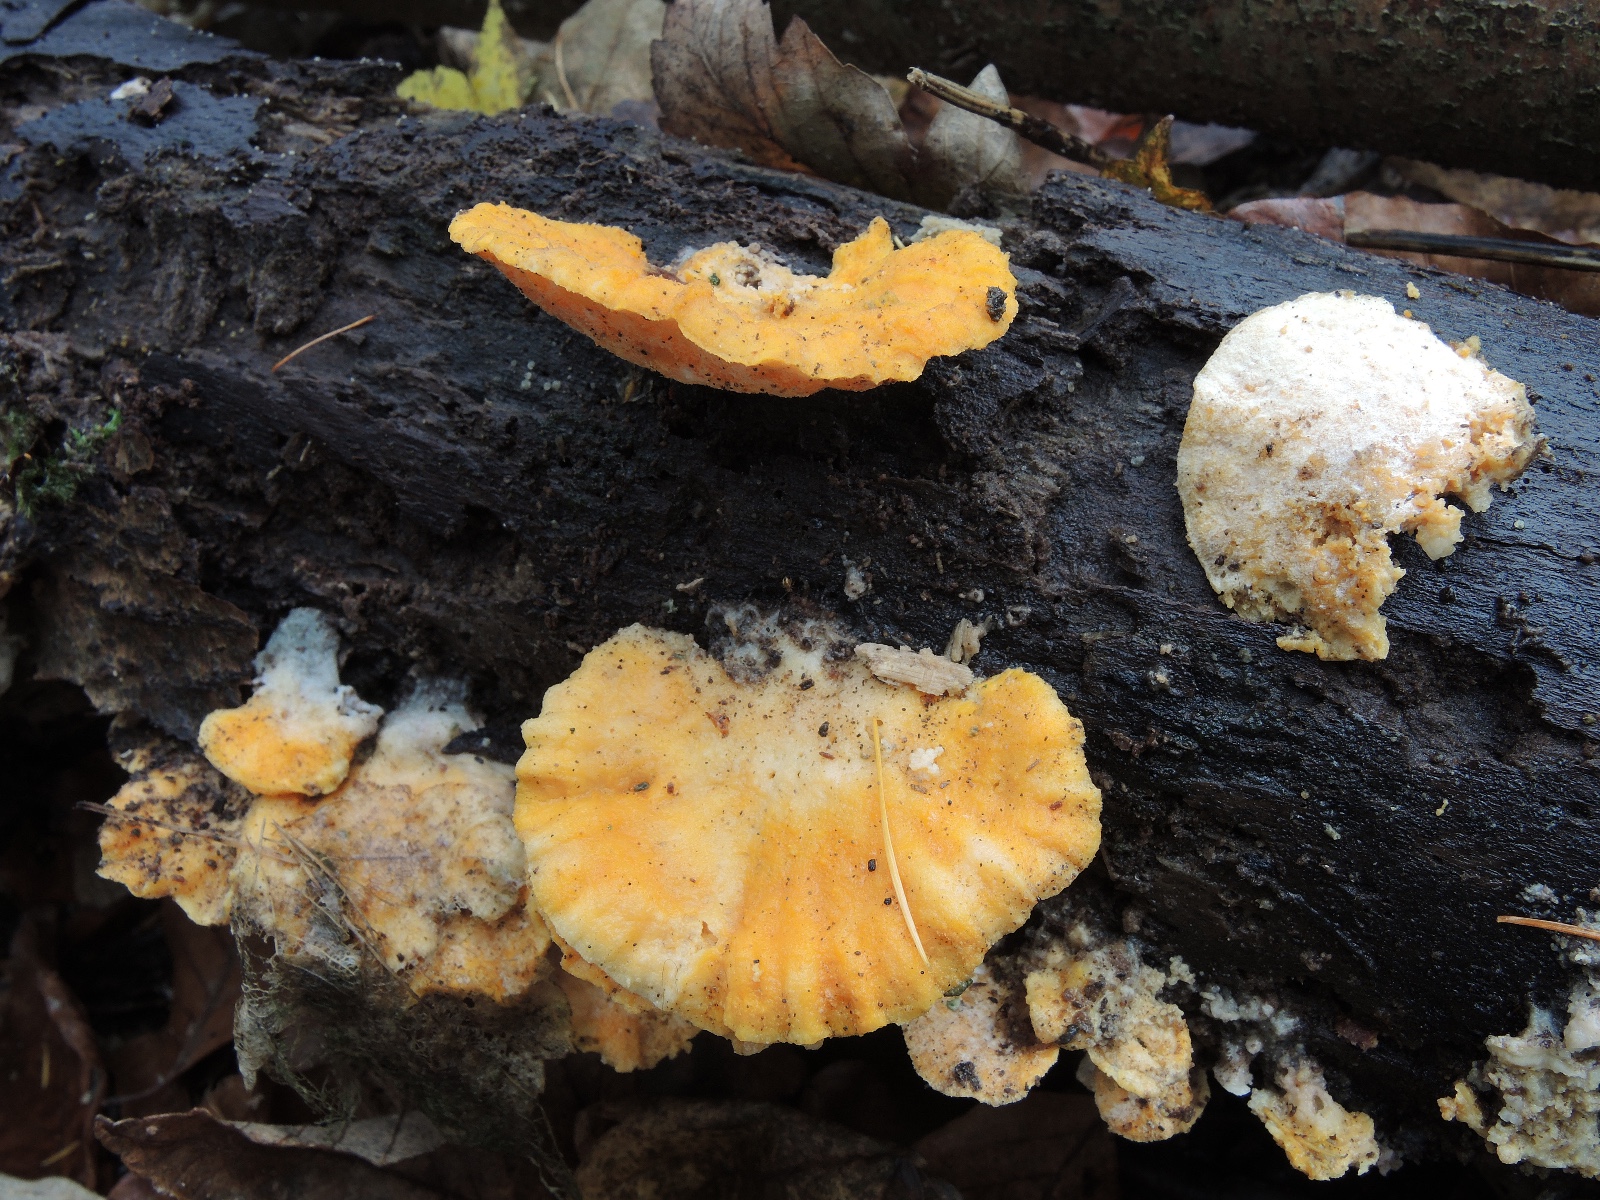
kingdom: Fungi
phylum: Ascomycota
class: Sordariomycetes
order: Hypocreales
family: Hypocreaceae
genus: Protocrea
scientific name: Protocrea pallida
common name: bleg kødkerne
